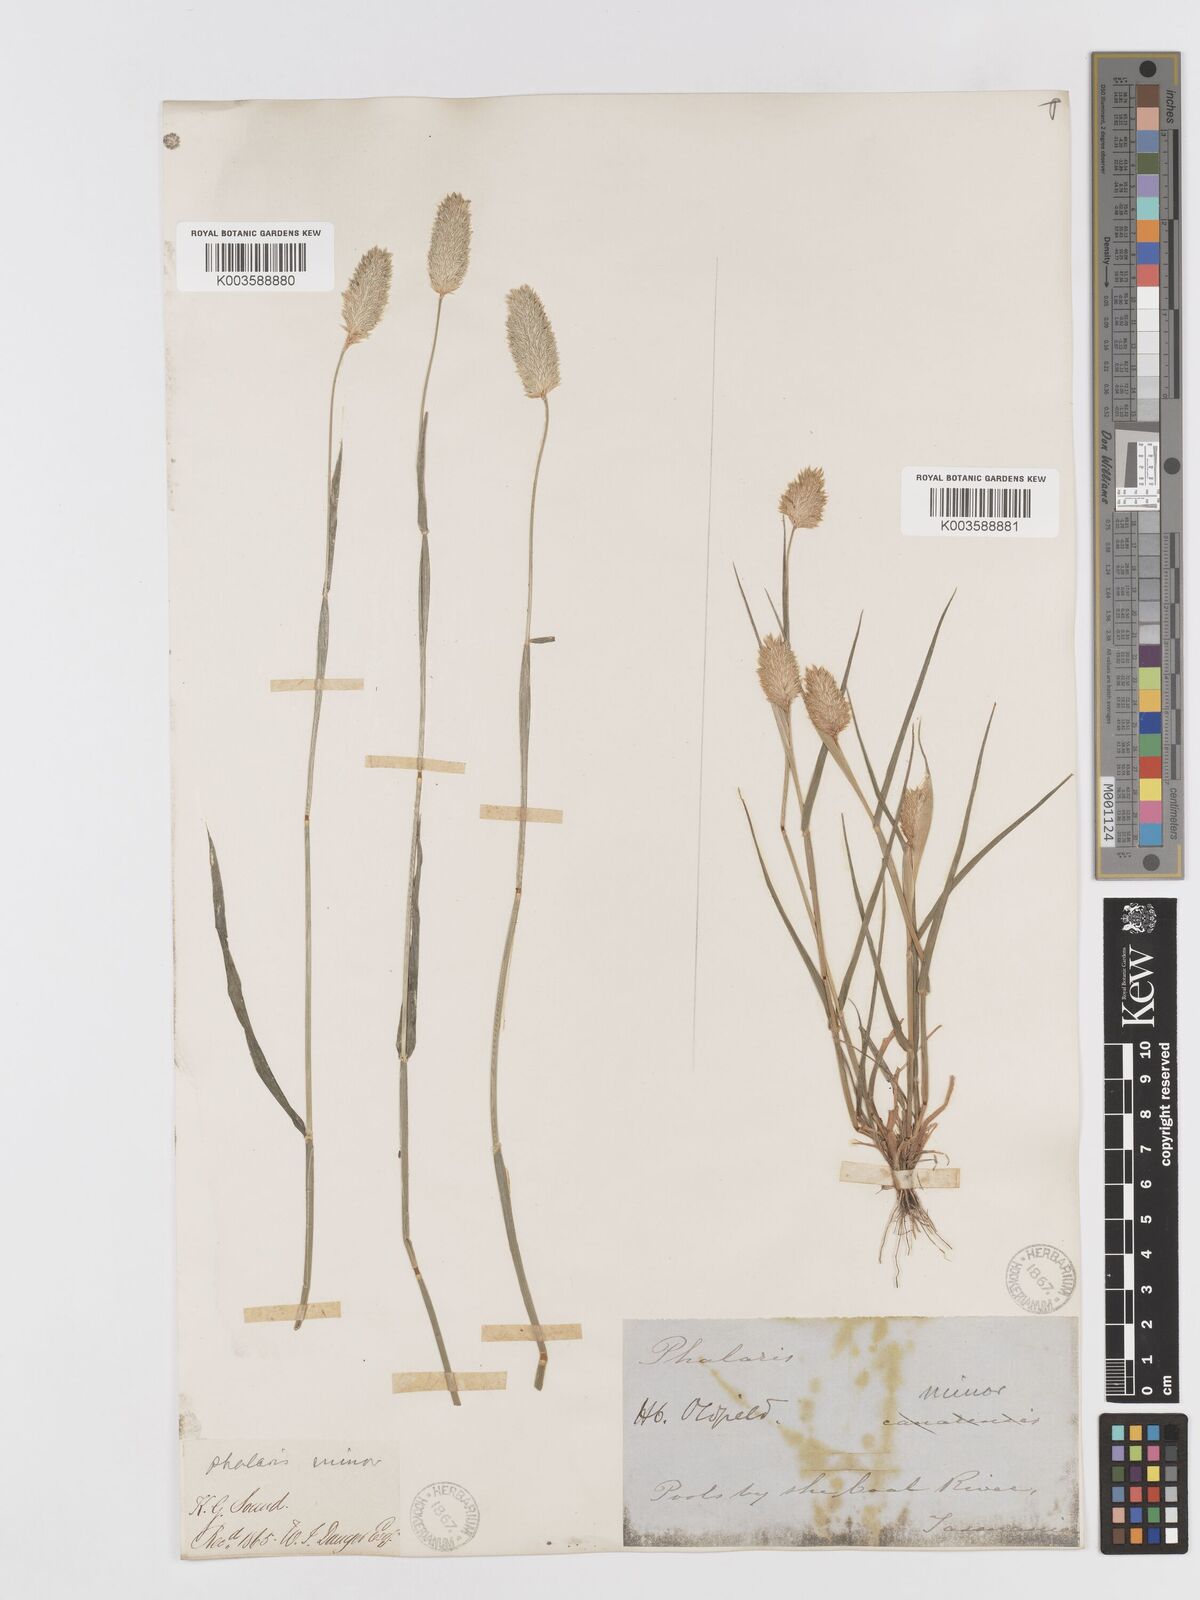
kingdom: Plantae
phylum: Tracheophyta
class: Liliopsida
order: Poales
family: Poaceae
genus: Phalaris
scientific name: Phalaris minor
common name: Littleseed canarygrass
